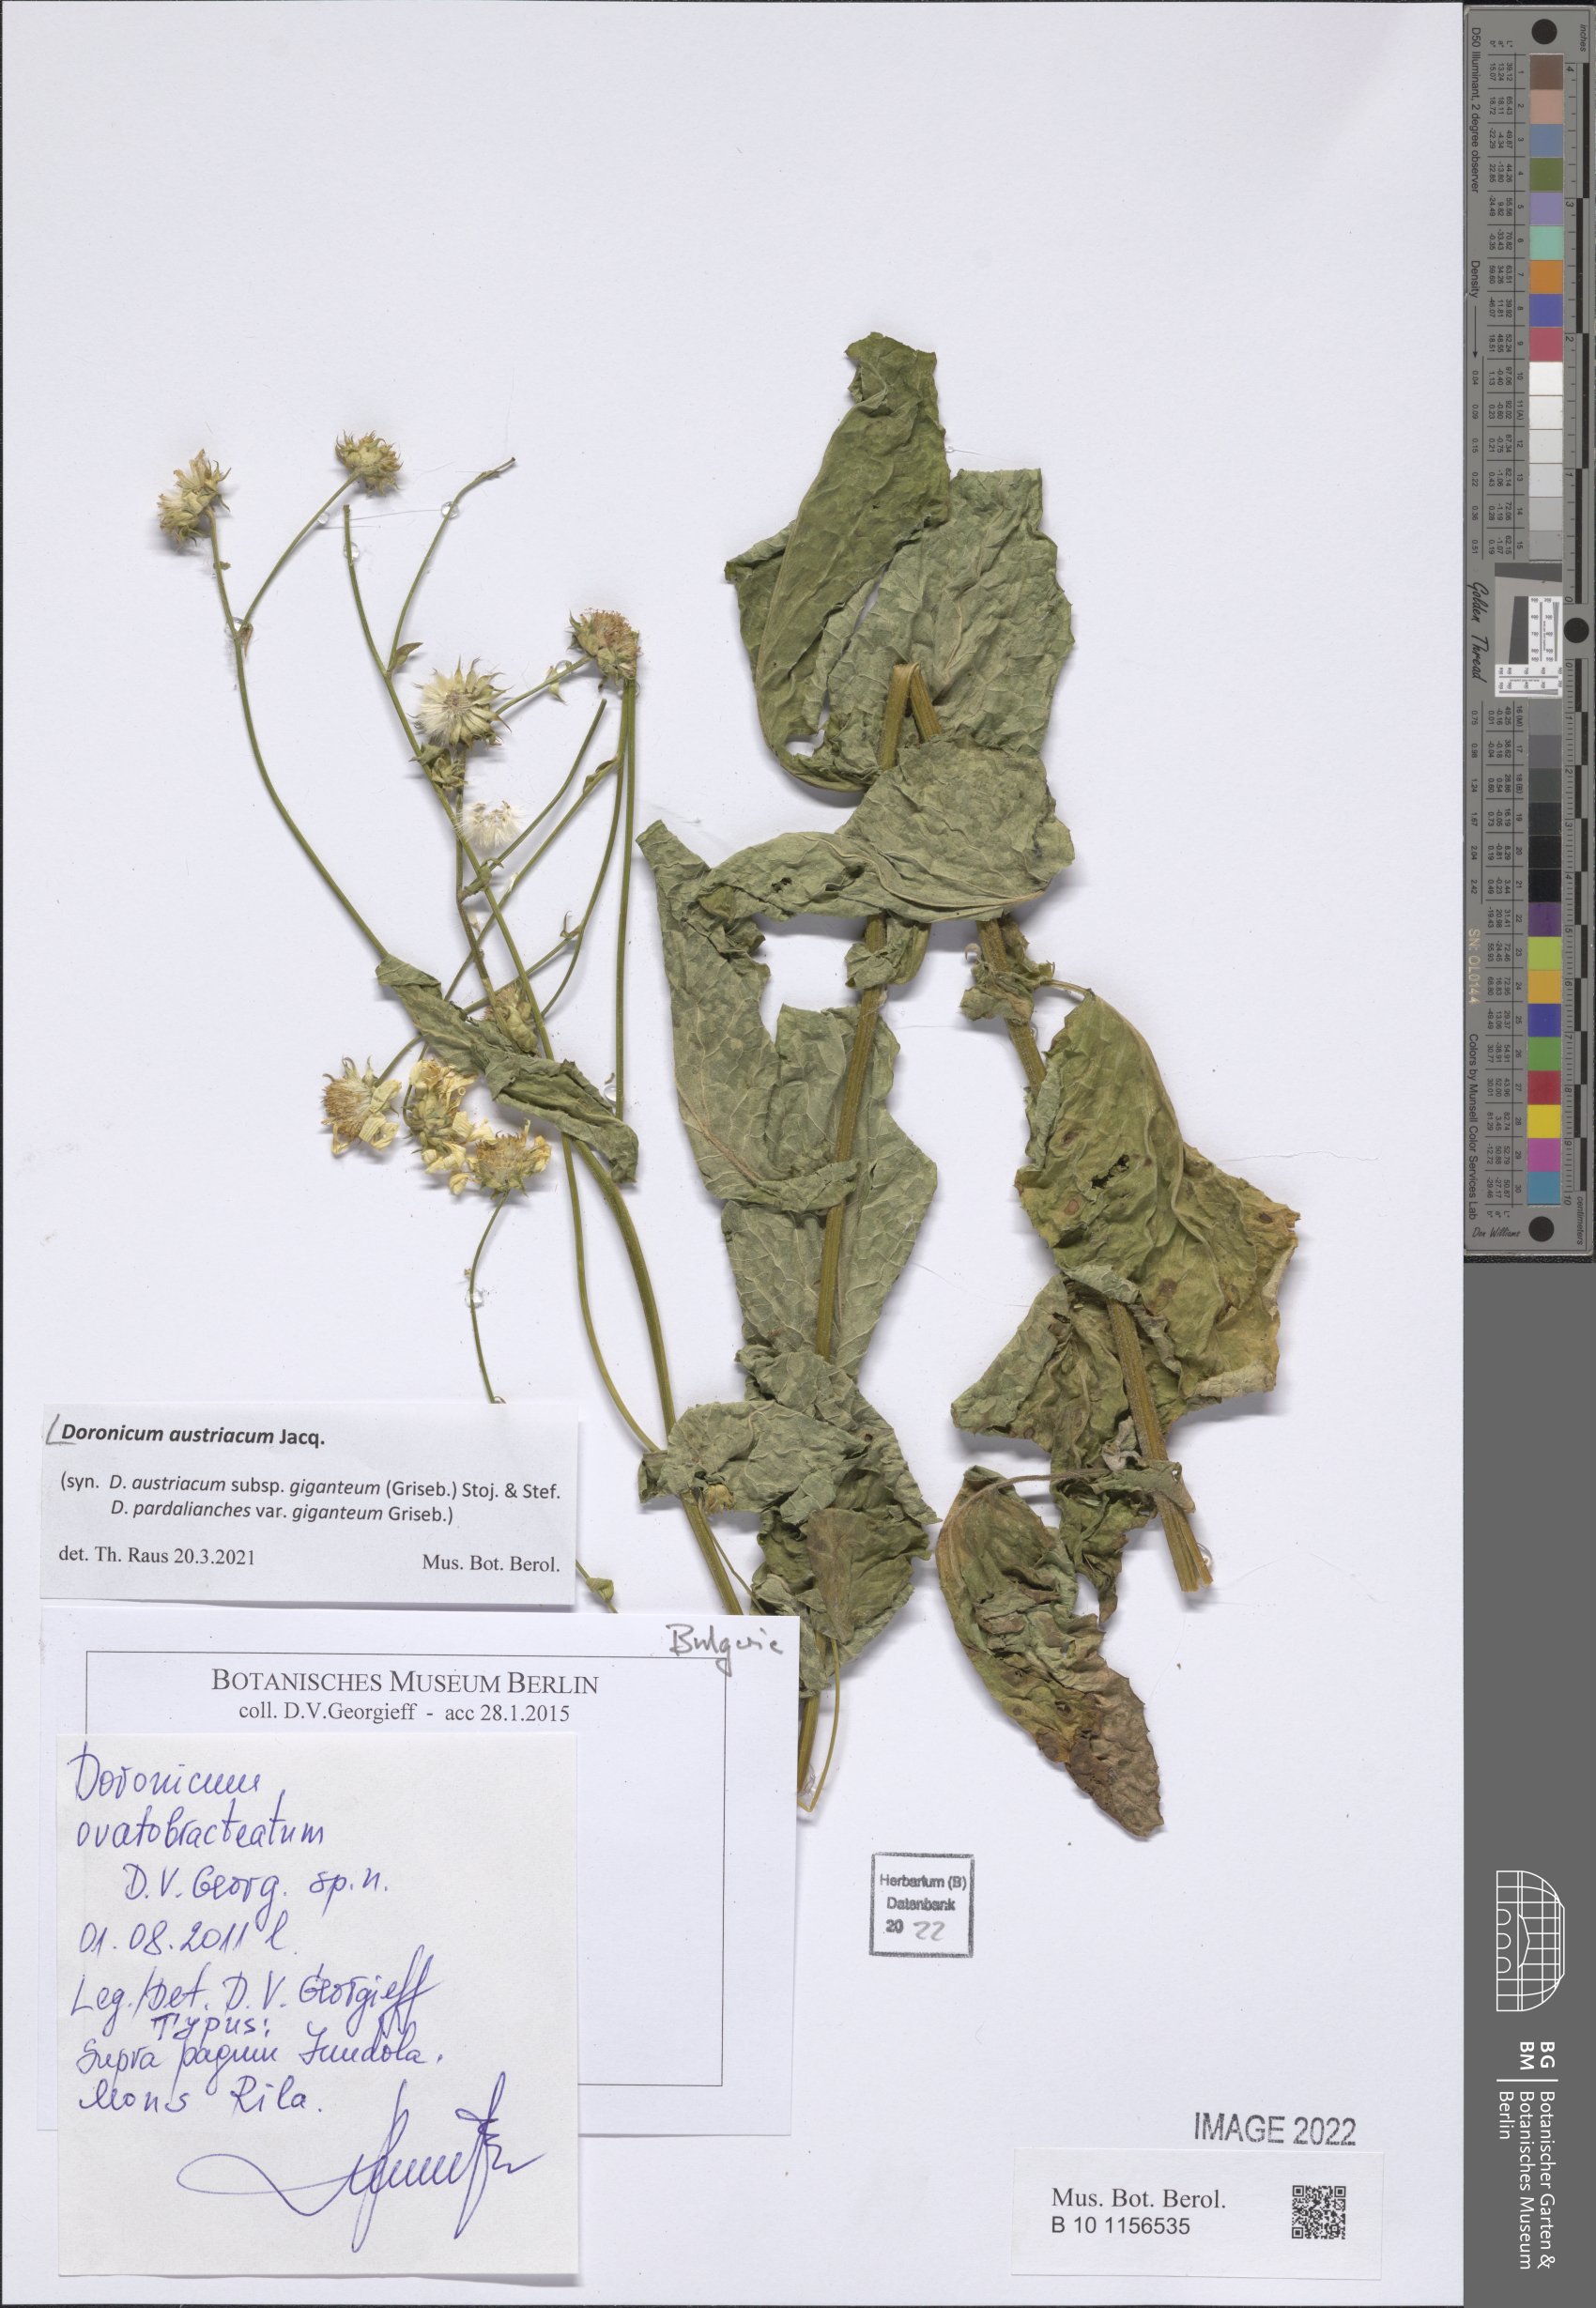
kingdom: Plantae
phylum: Tracheophyta
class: Magnoliopsida
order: Asterales
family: Asteraceae
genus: Doronicum
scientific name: Doronicum austriacum
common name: Austrian leopard's-bane
